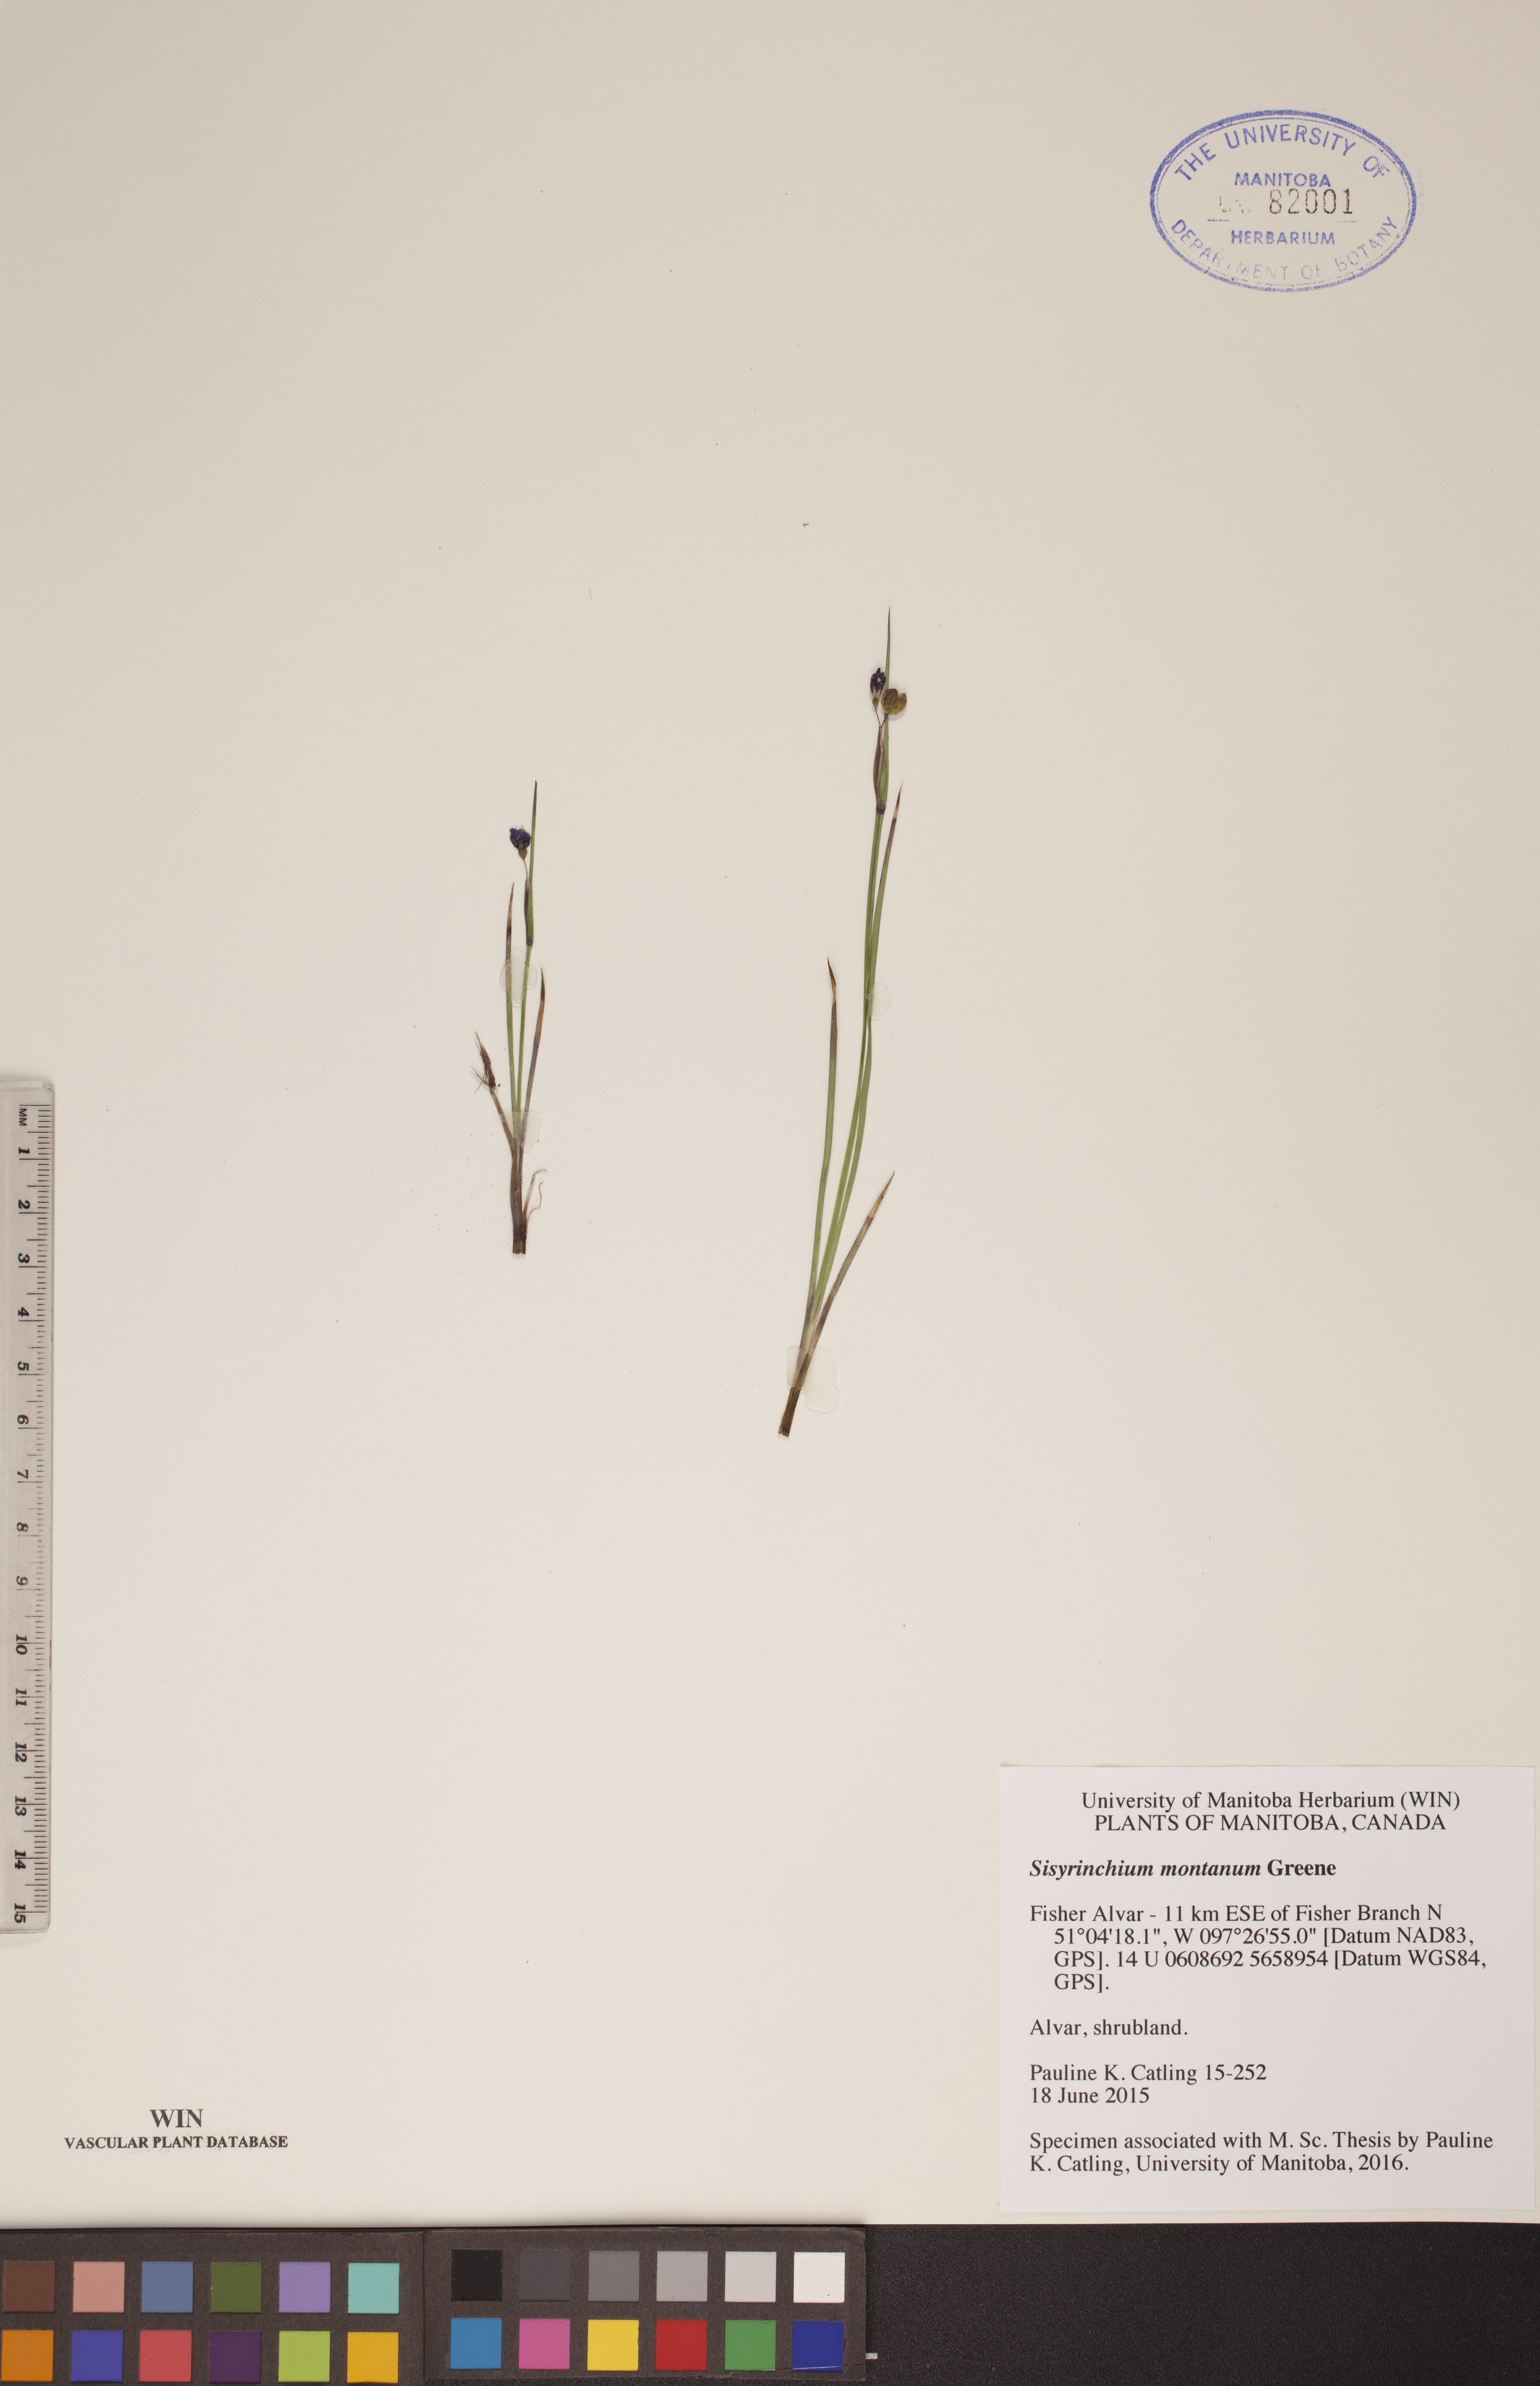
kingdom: Plantae
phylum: Tracheophyta
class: Liliopsida
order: Asparagales
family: Iridaceae
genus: Sisyrinchium
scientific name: Sisyrinchium montanum
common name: American blue-eyed-grass
